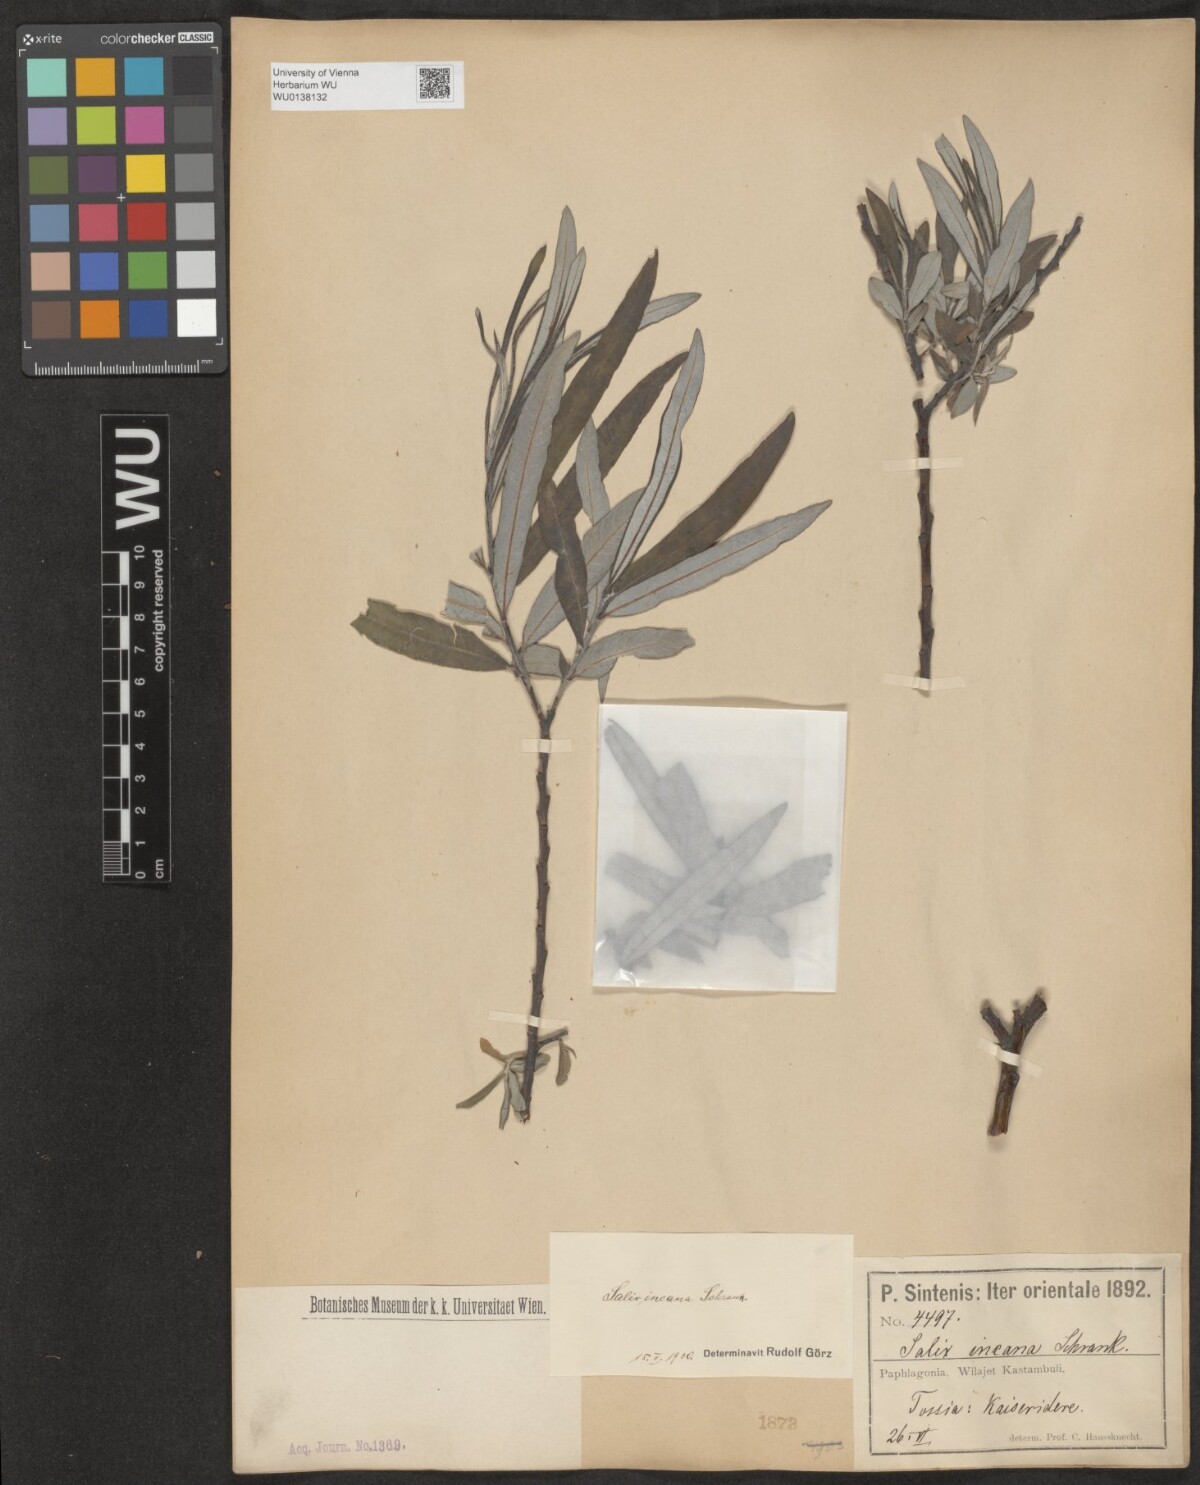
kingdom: Plantae
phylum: Tracheophyta
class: Magnoliopsida
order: Malpighiales
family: Salicaceae
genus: Salix
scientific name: Salix eleagnos
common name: Elaeagnus willow
